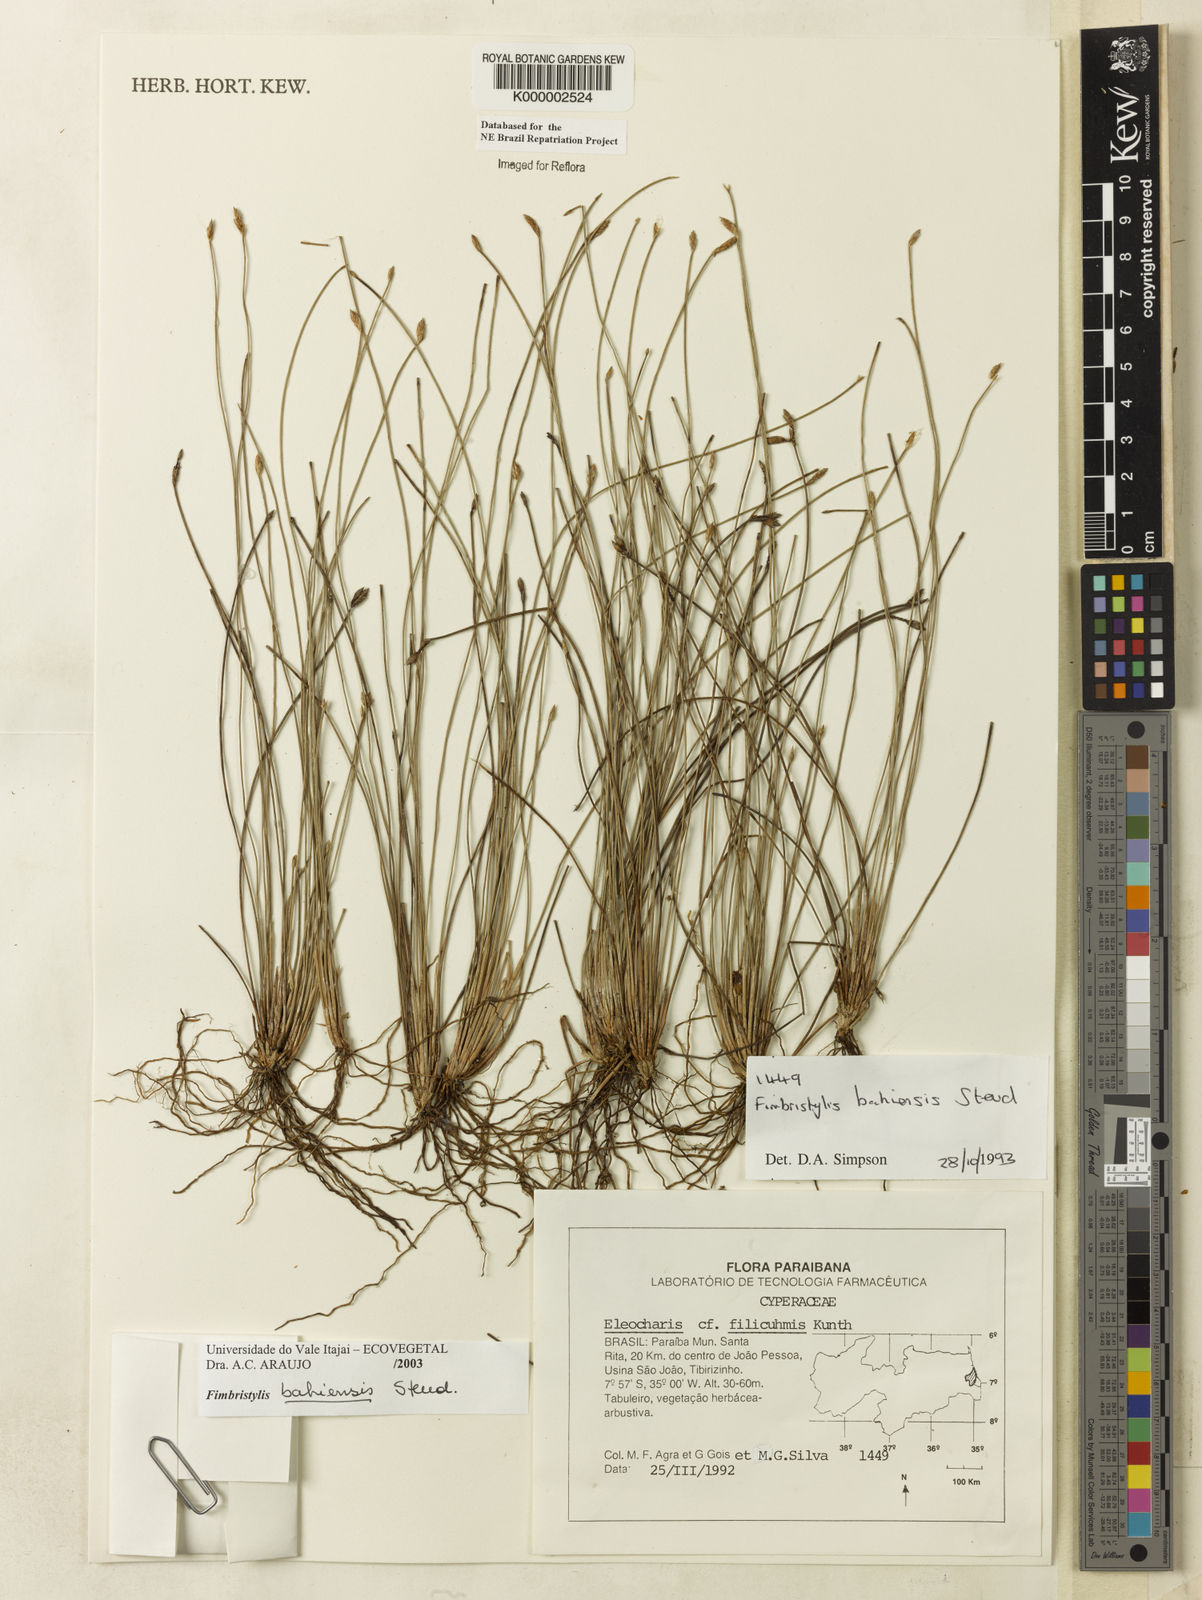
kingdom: Plantae
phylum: Tracheophyta
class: Liliopsida
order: Poales
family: Cyperaceae
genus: Fimbristylis
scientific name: Fimbristylis bahiensis
